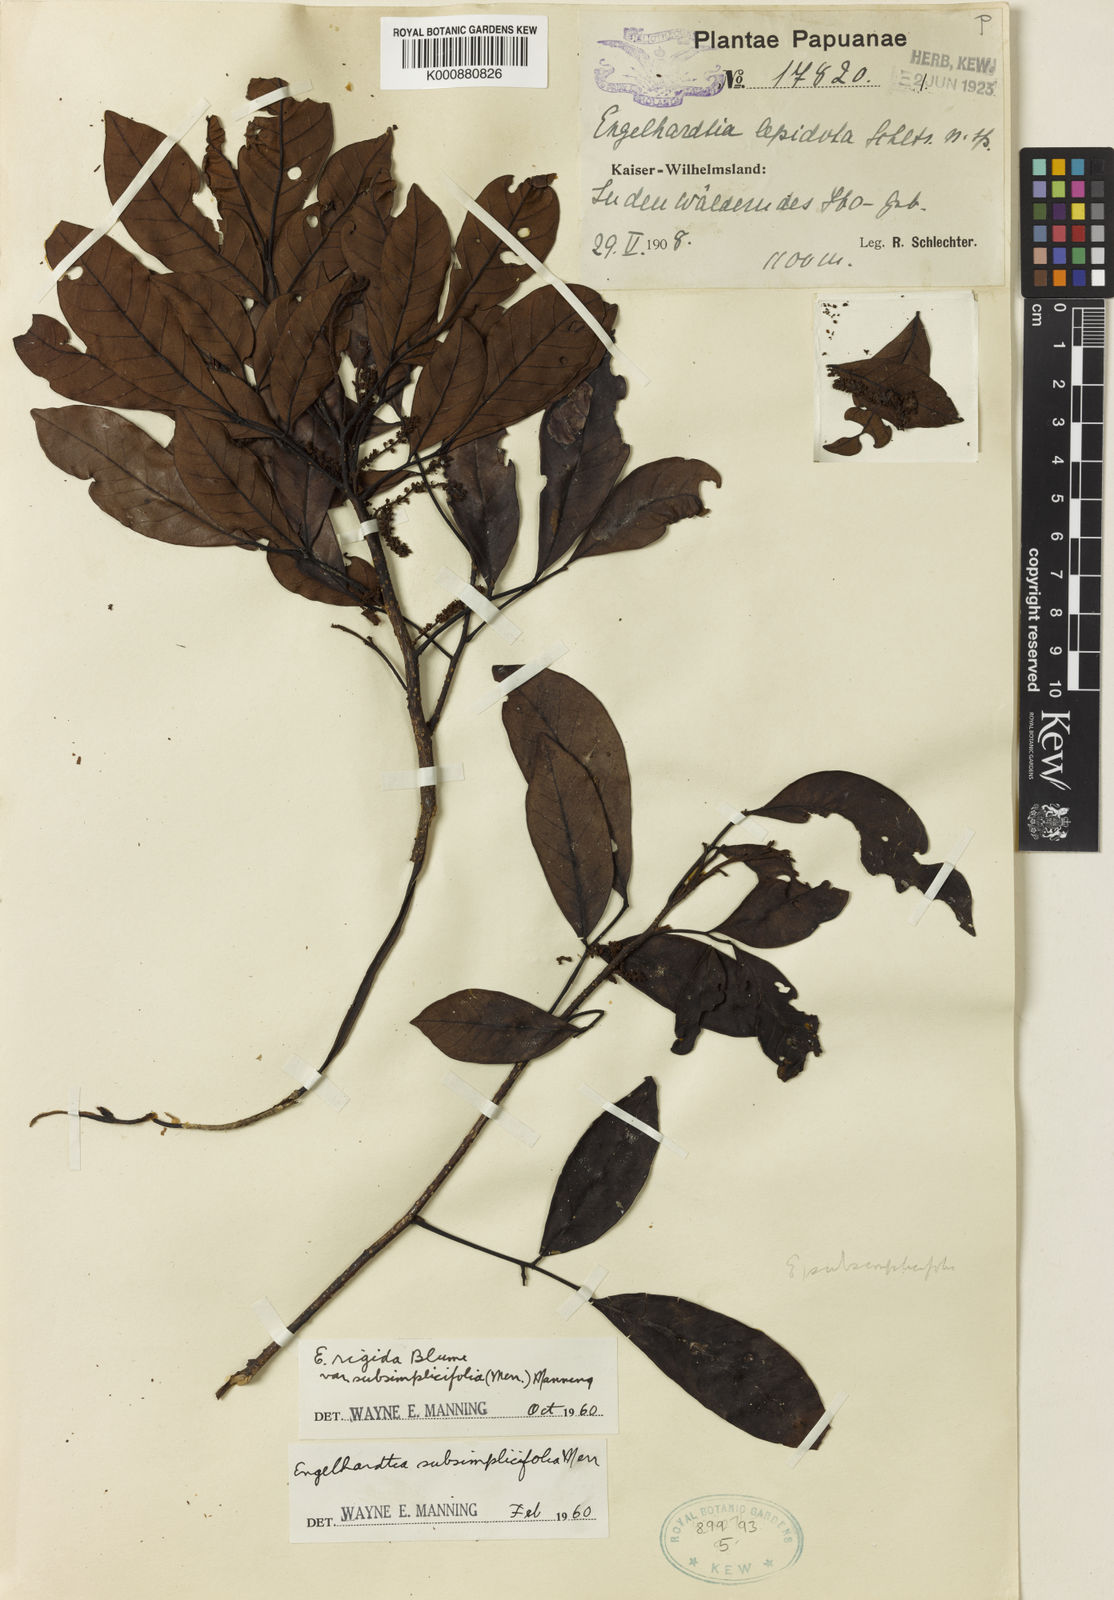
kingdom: Plantae
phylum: Tracheophyta
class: Magnoliopsida
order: Fagales
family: Juglandaceae
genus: Engelhardia
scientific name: Engelhardia rigida
